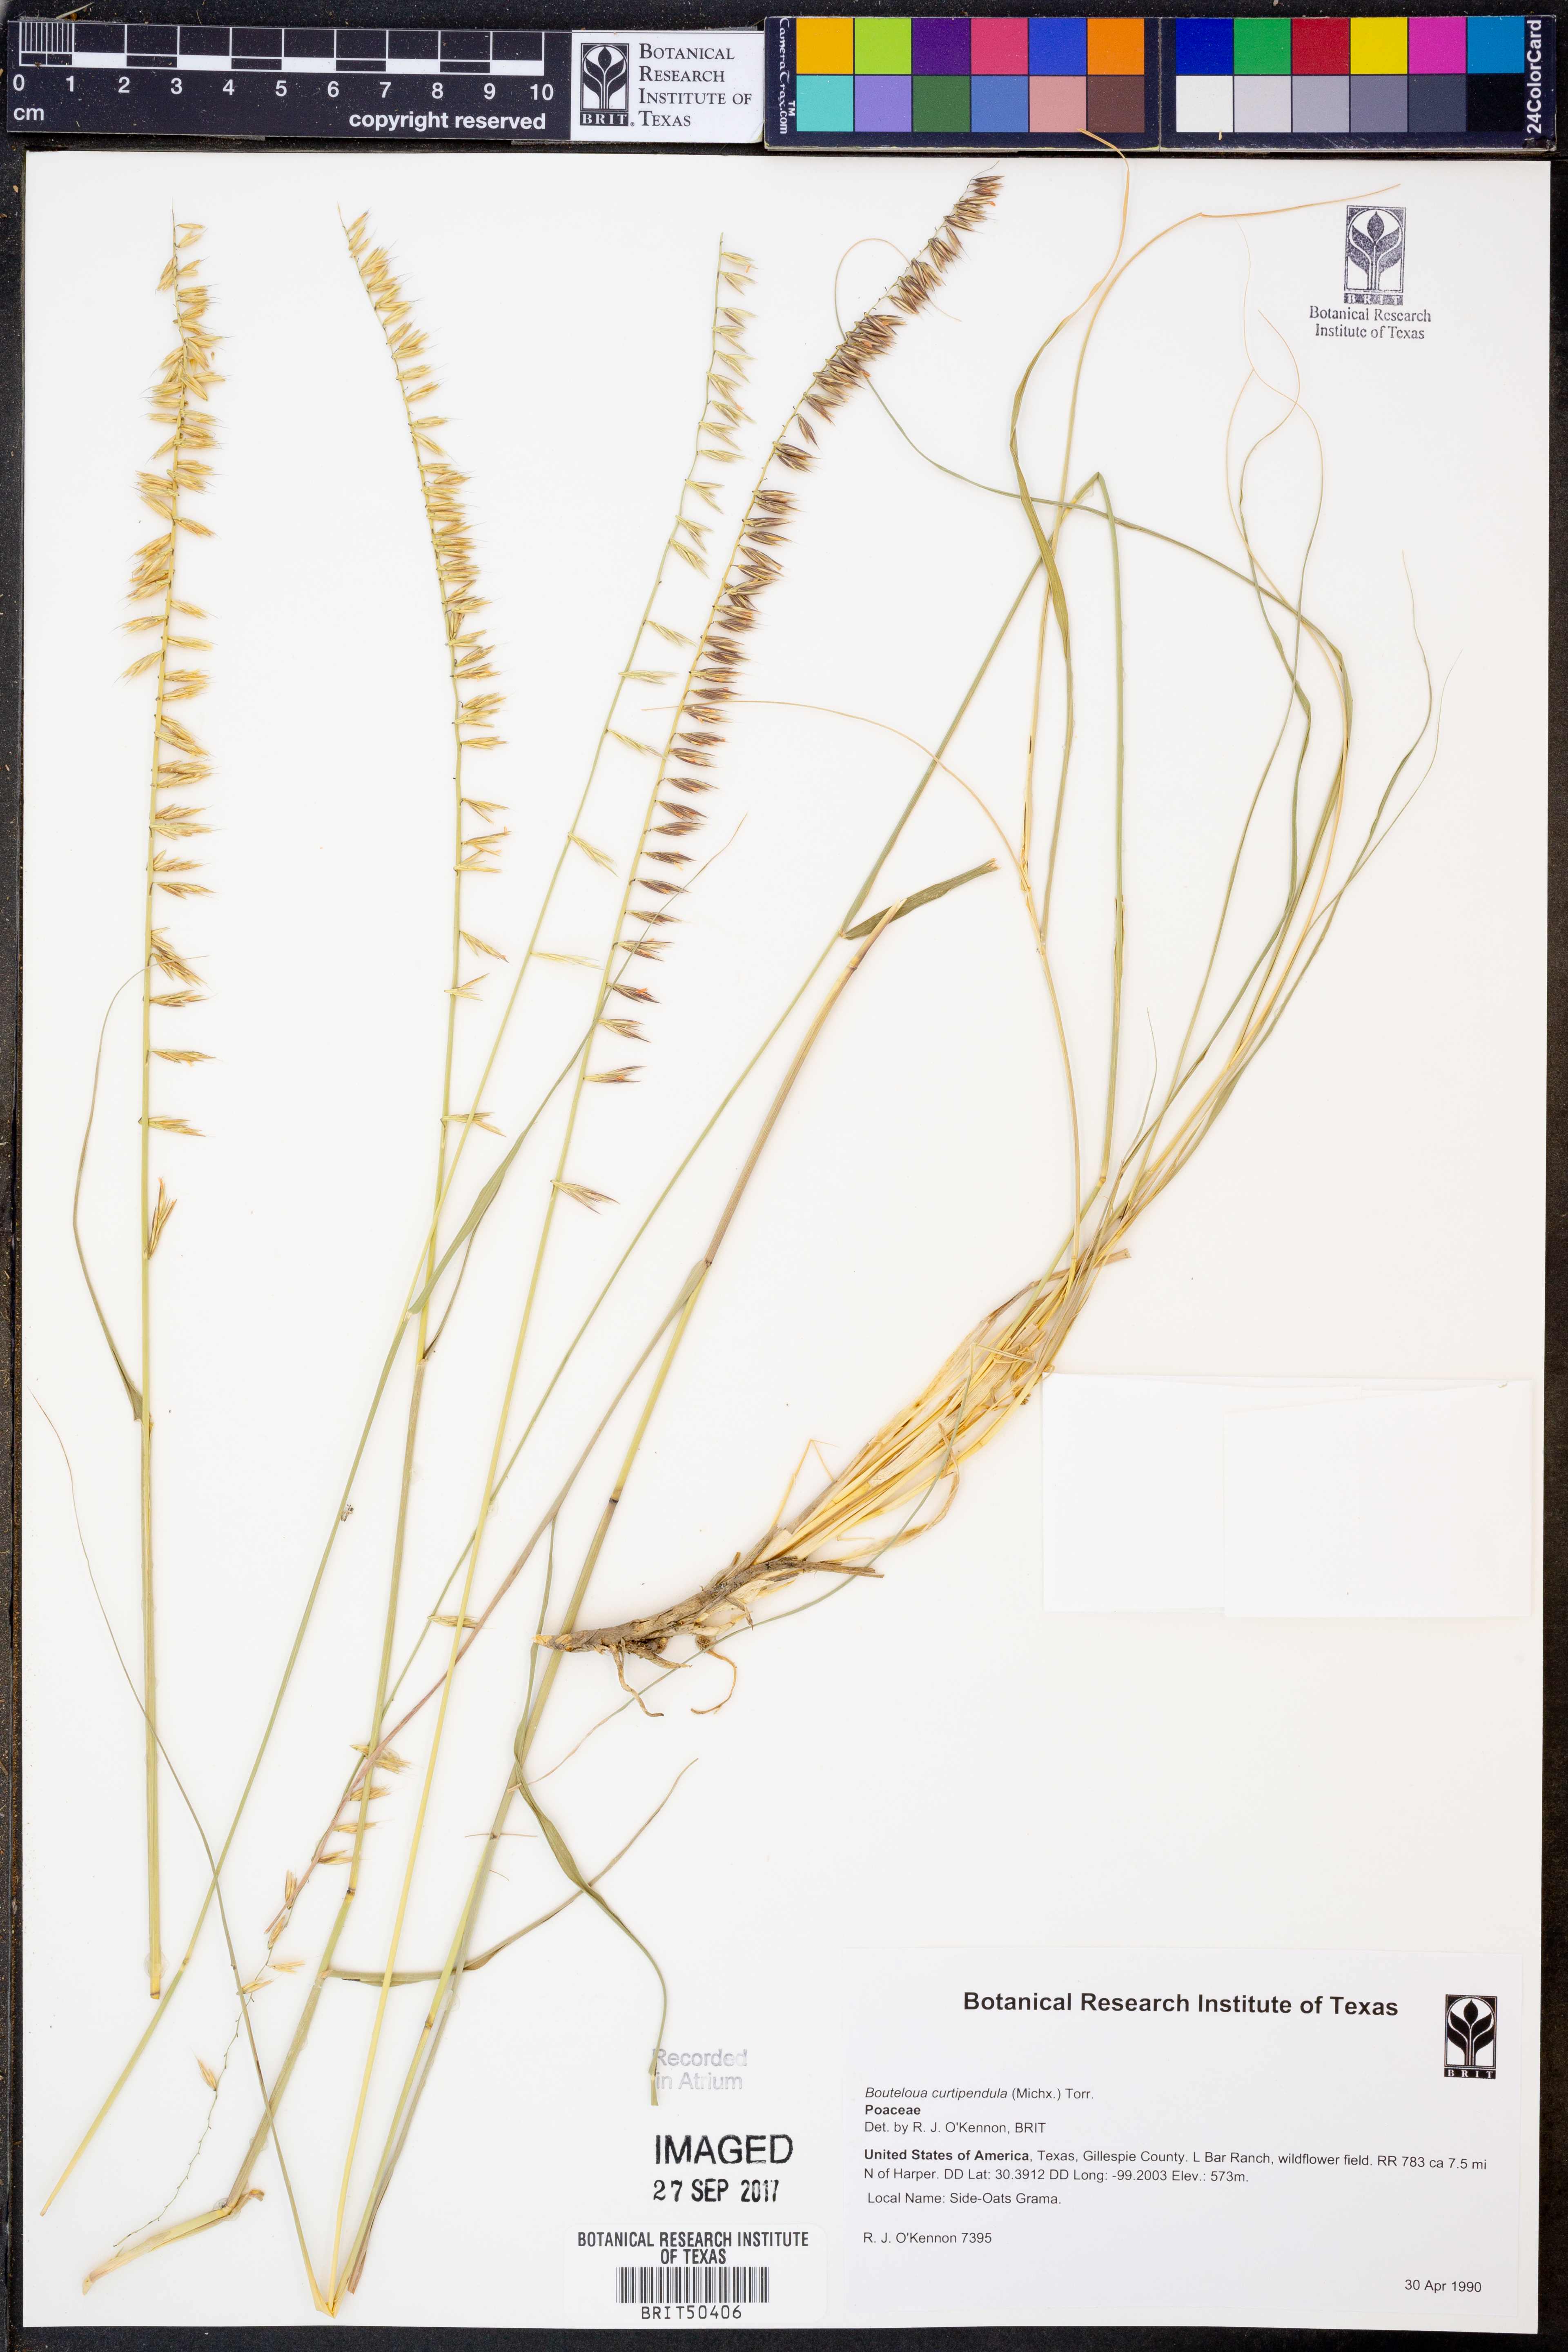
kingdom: Plantae
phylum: Tracheophyta
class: Liliopsida
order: Poales
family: Poaceae
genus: Bouteloua
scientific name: Bouteloua curtipendula
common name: Side-oats grama
